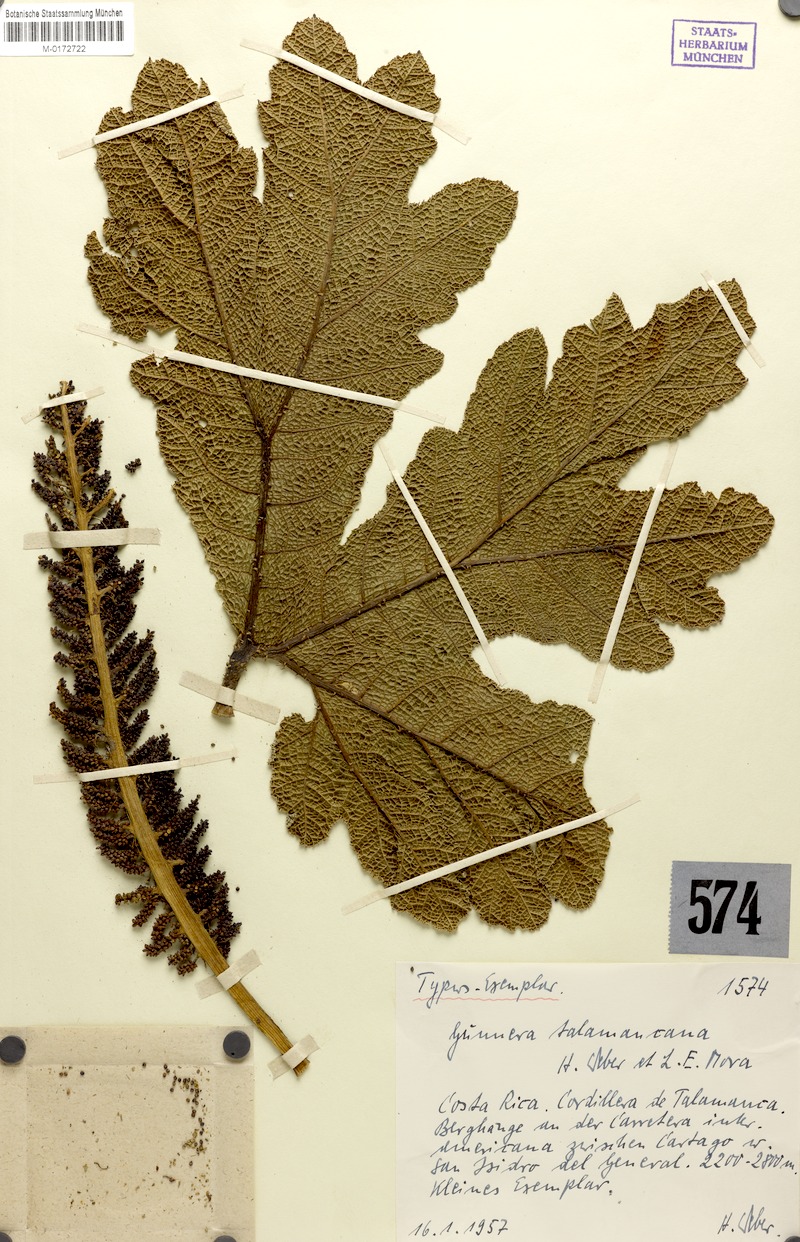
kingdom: Plantae
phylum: Tracheophyta
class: Magnoliopsida
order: Gunnerales
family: Gunneraceae
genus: Gunnera
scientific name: Gunnera talamancana
